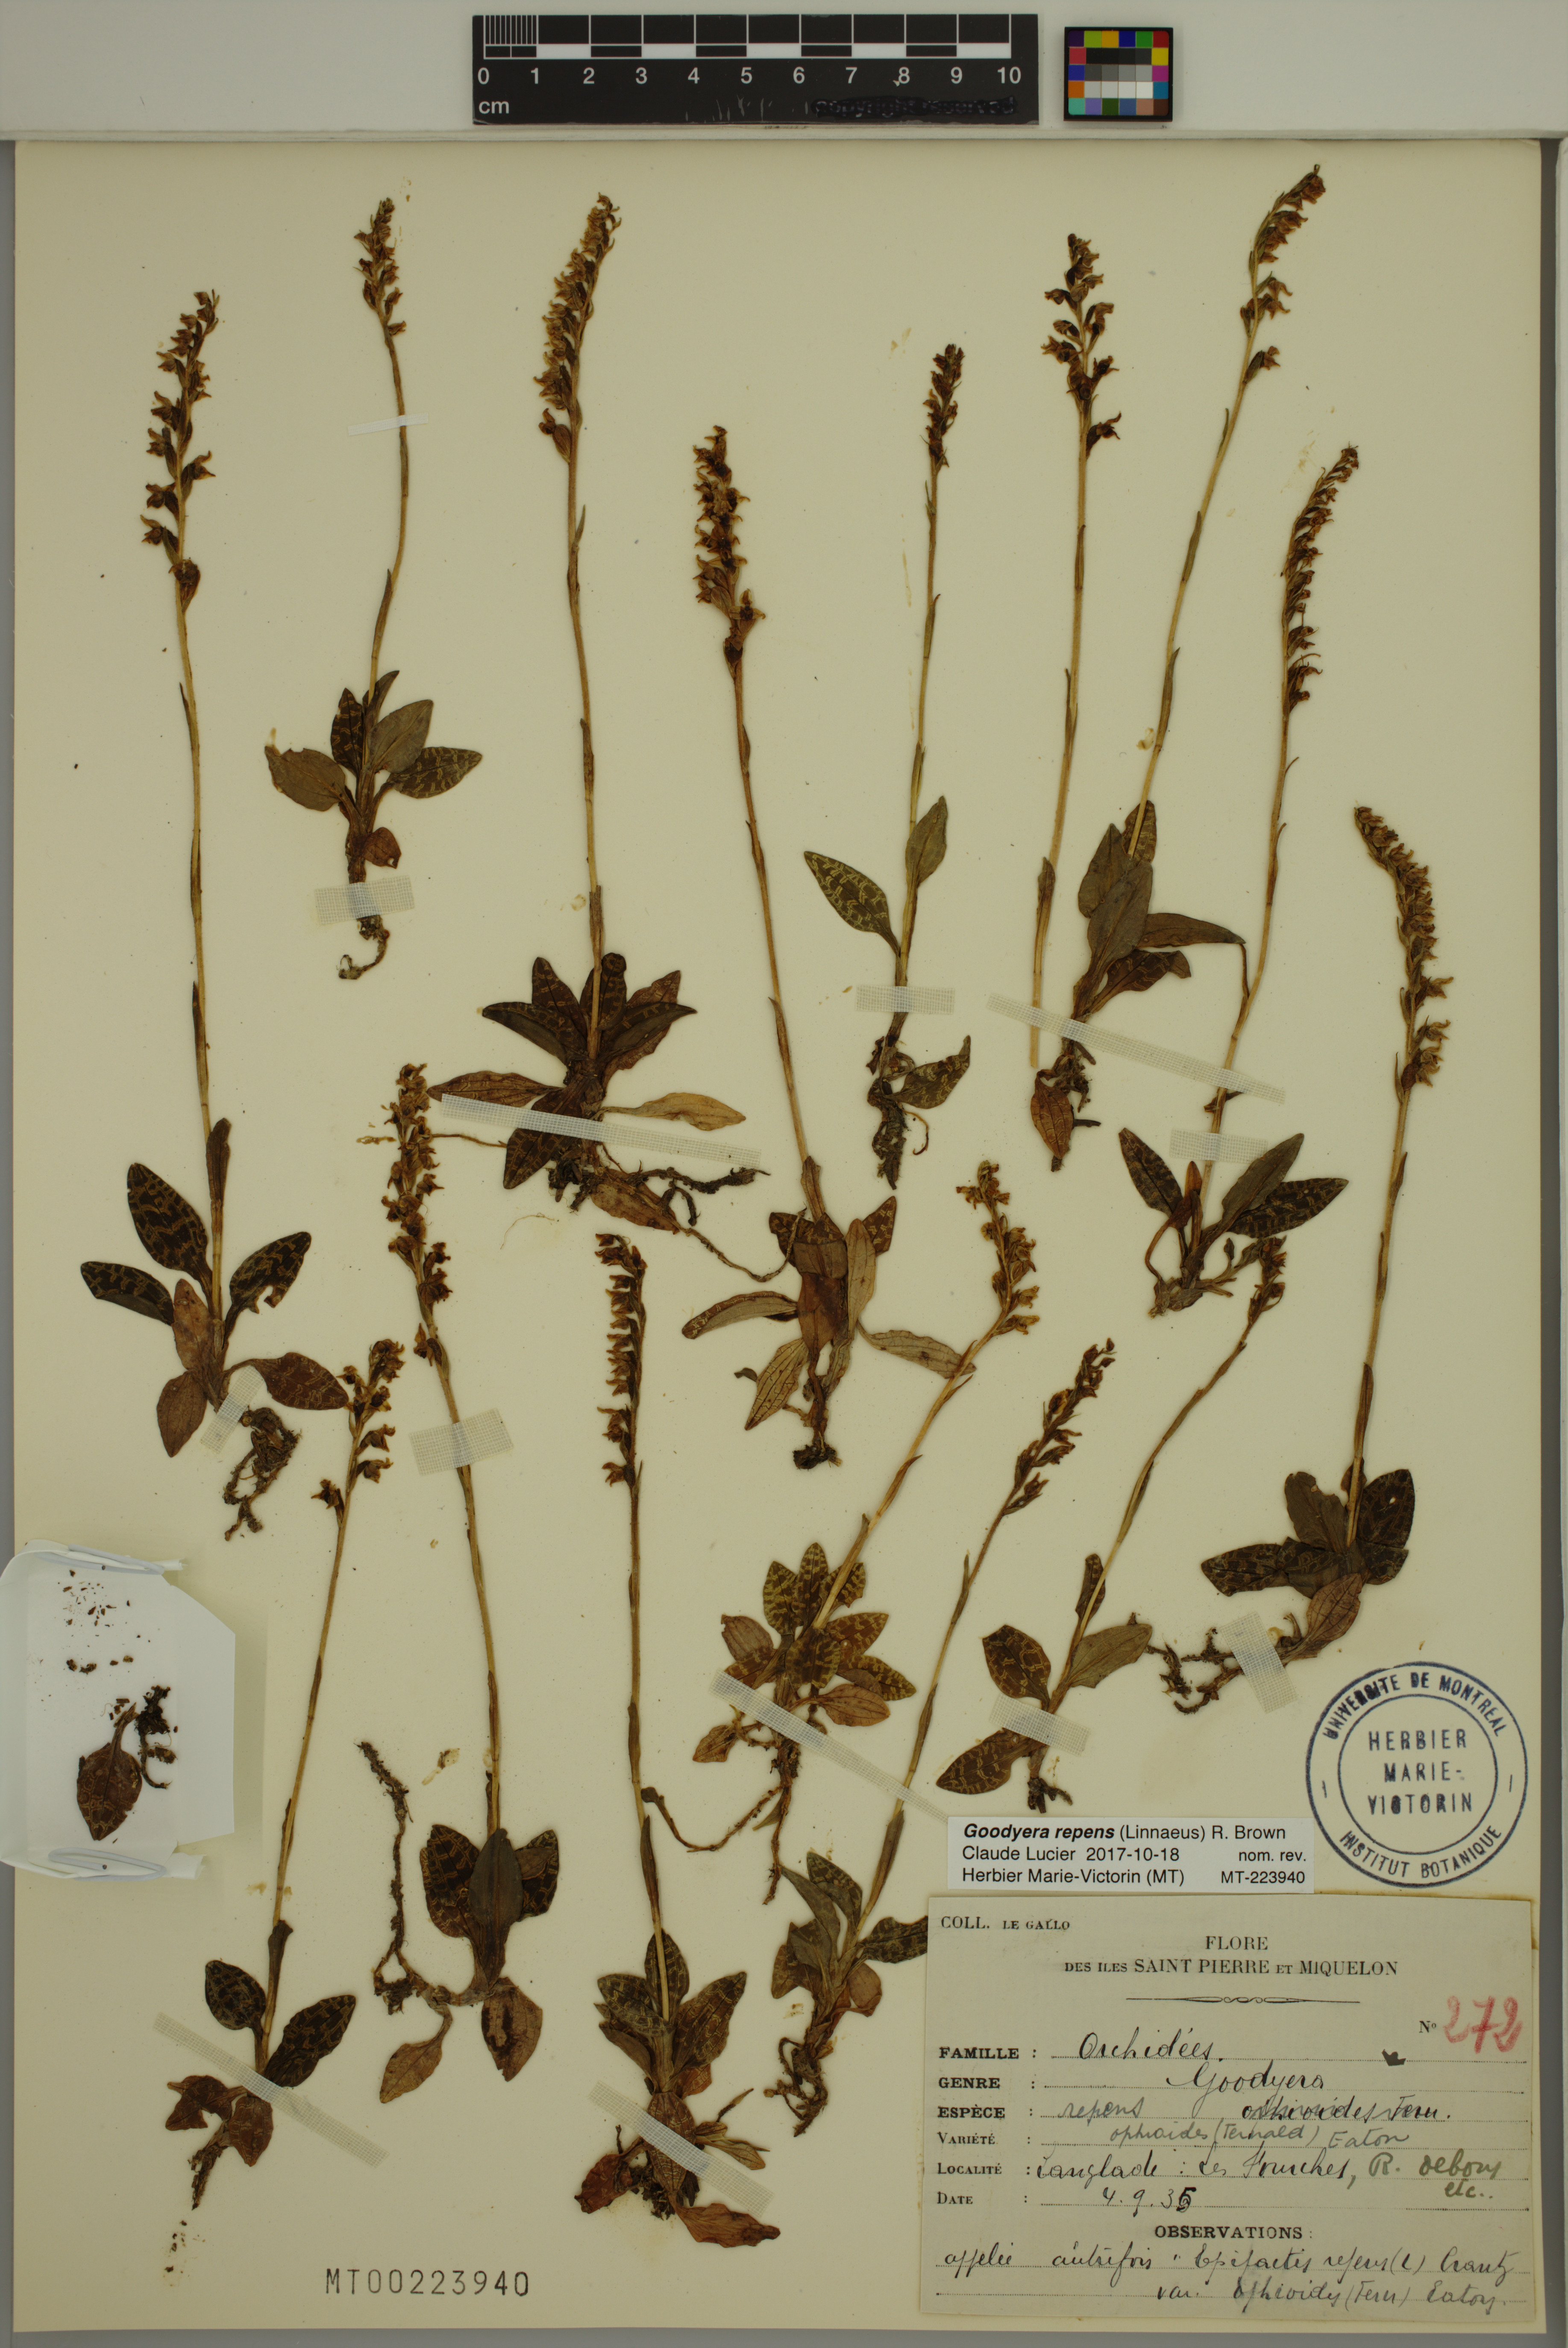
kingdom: Plantae
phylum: Tracheophyta
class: Liliopsida
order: Asparagales
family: Orchidaceae
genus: Goodyera
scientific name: Goodyera repens
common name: Creeping lady's-tresses
